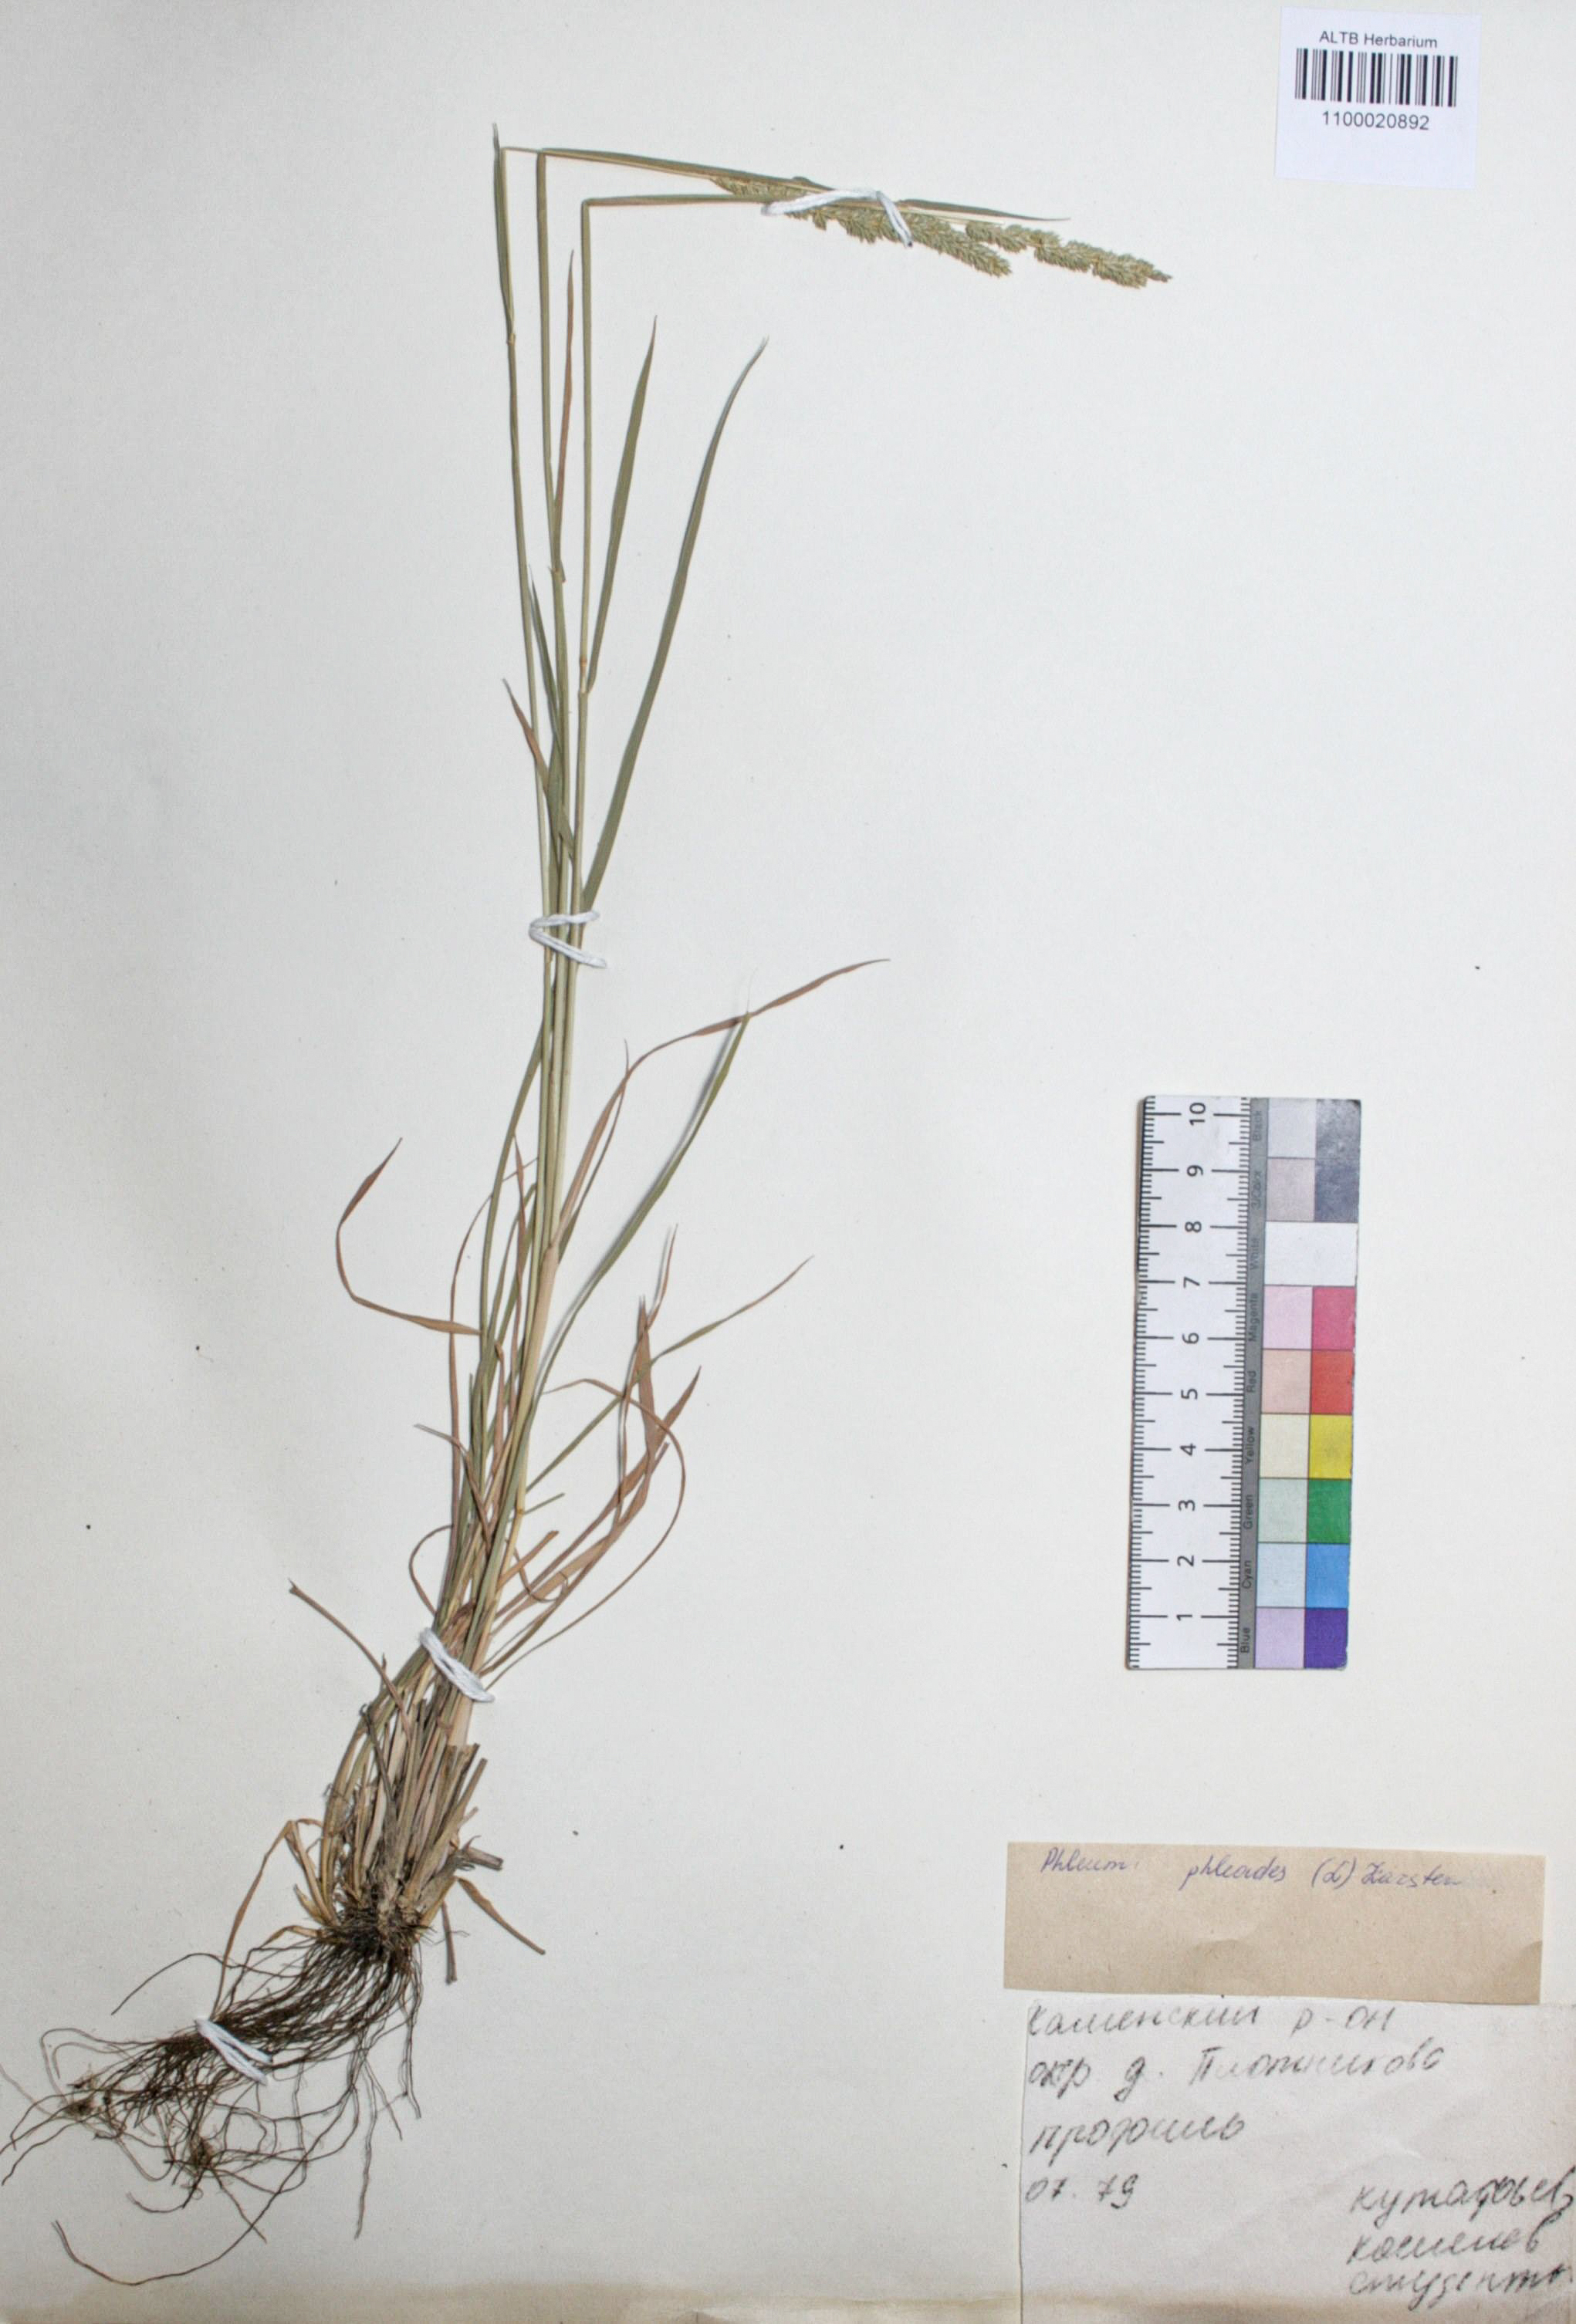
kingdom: Plantae
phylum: Tracheophyta
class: Liliopsida
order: Poales
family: Poaceae
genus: Phleum
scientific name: Phleum phleoides
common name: Purple-stem cat's-tail
